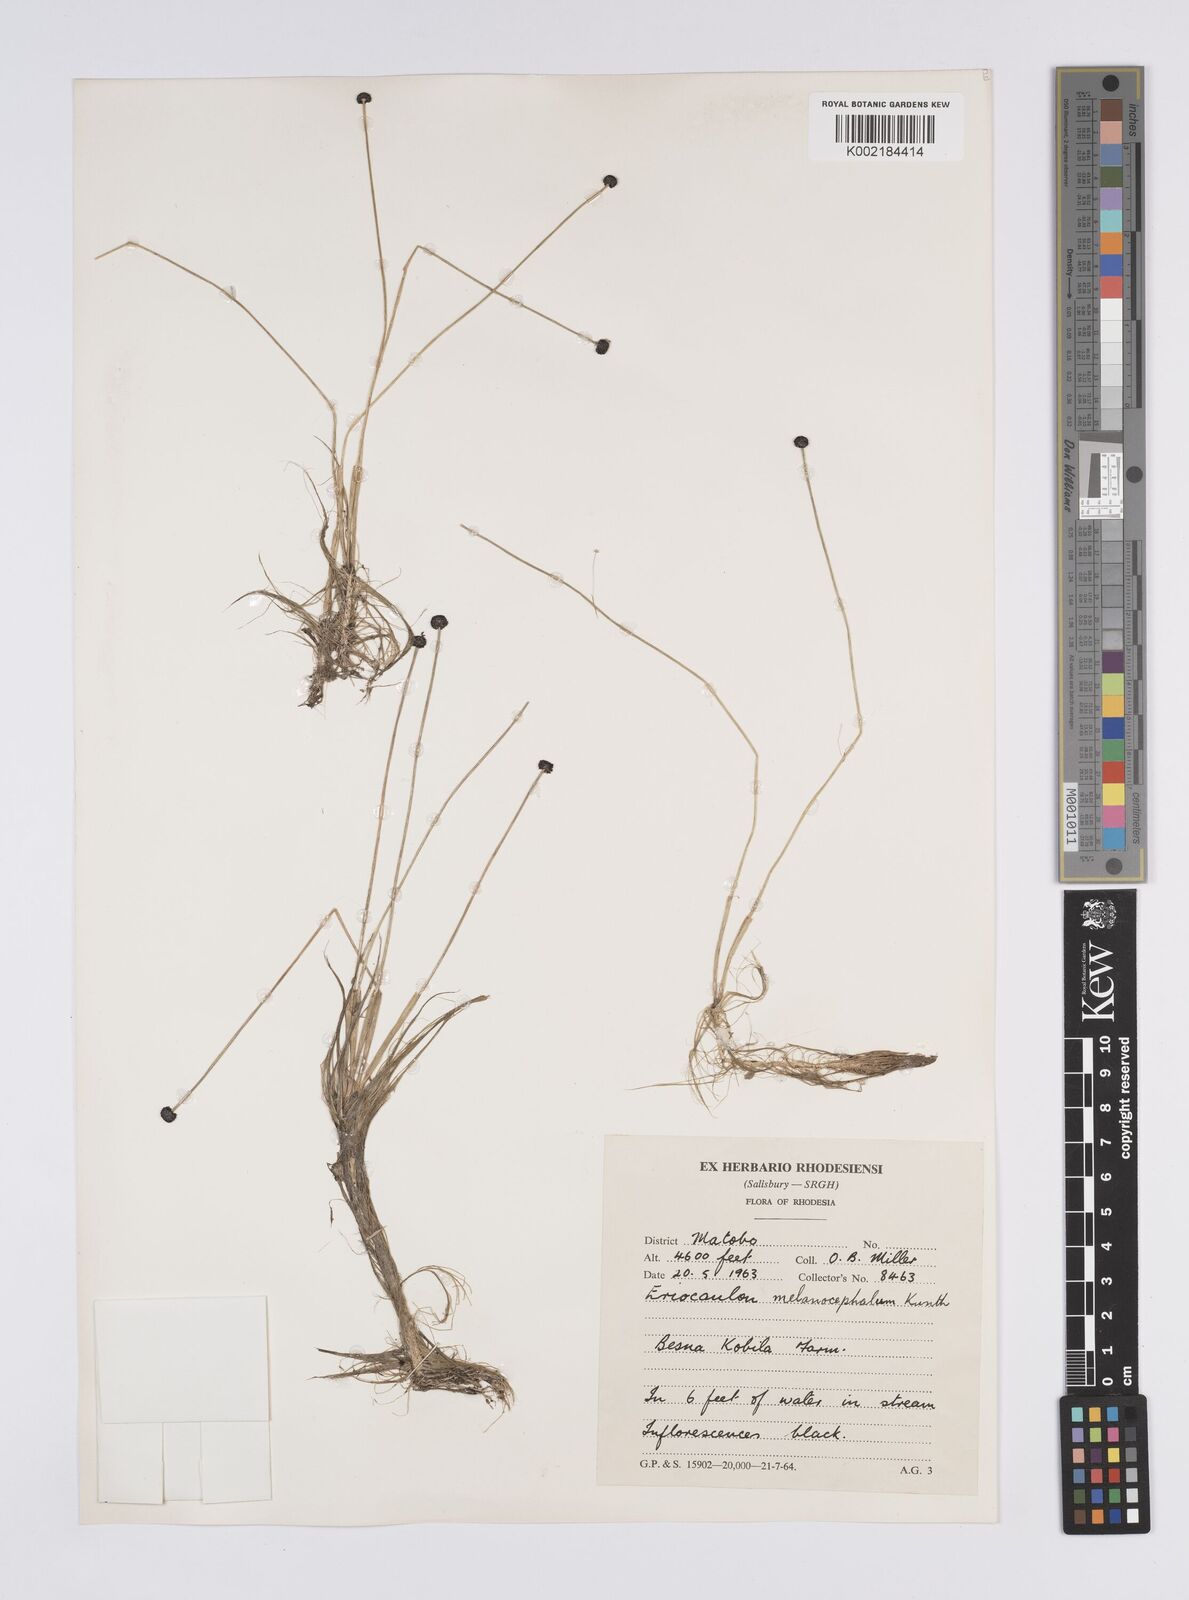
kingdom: Plantae
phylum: Tracheophyta
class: Liliopsida
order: Poales
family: Eriocaulaceae
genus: Eriocaulon
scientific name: Eriocaulon melanocephalum
